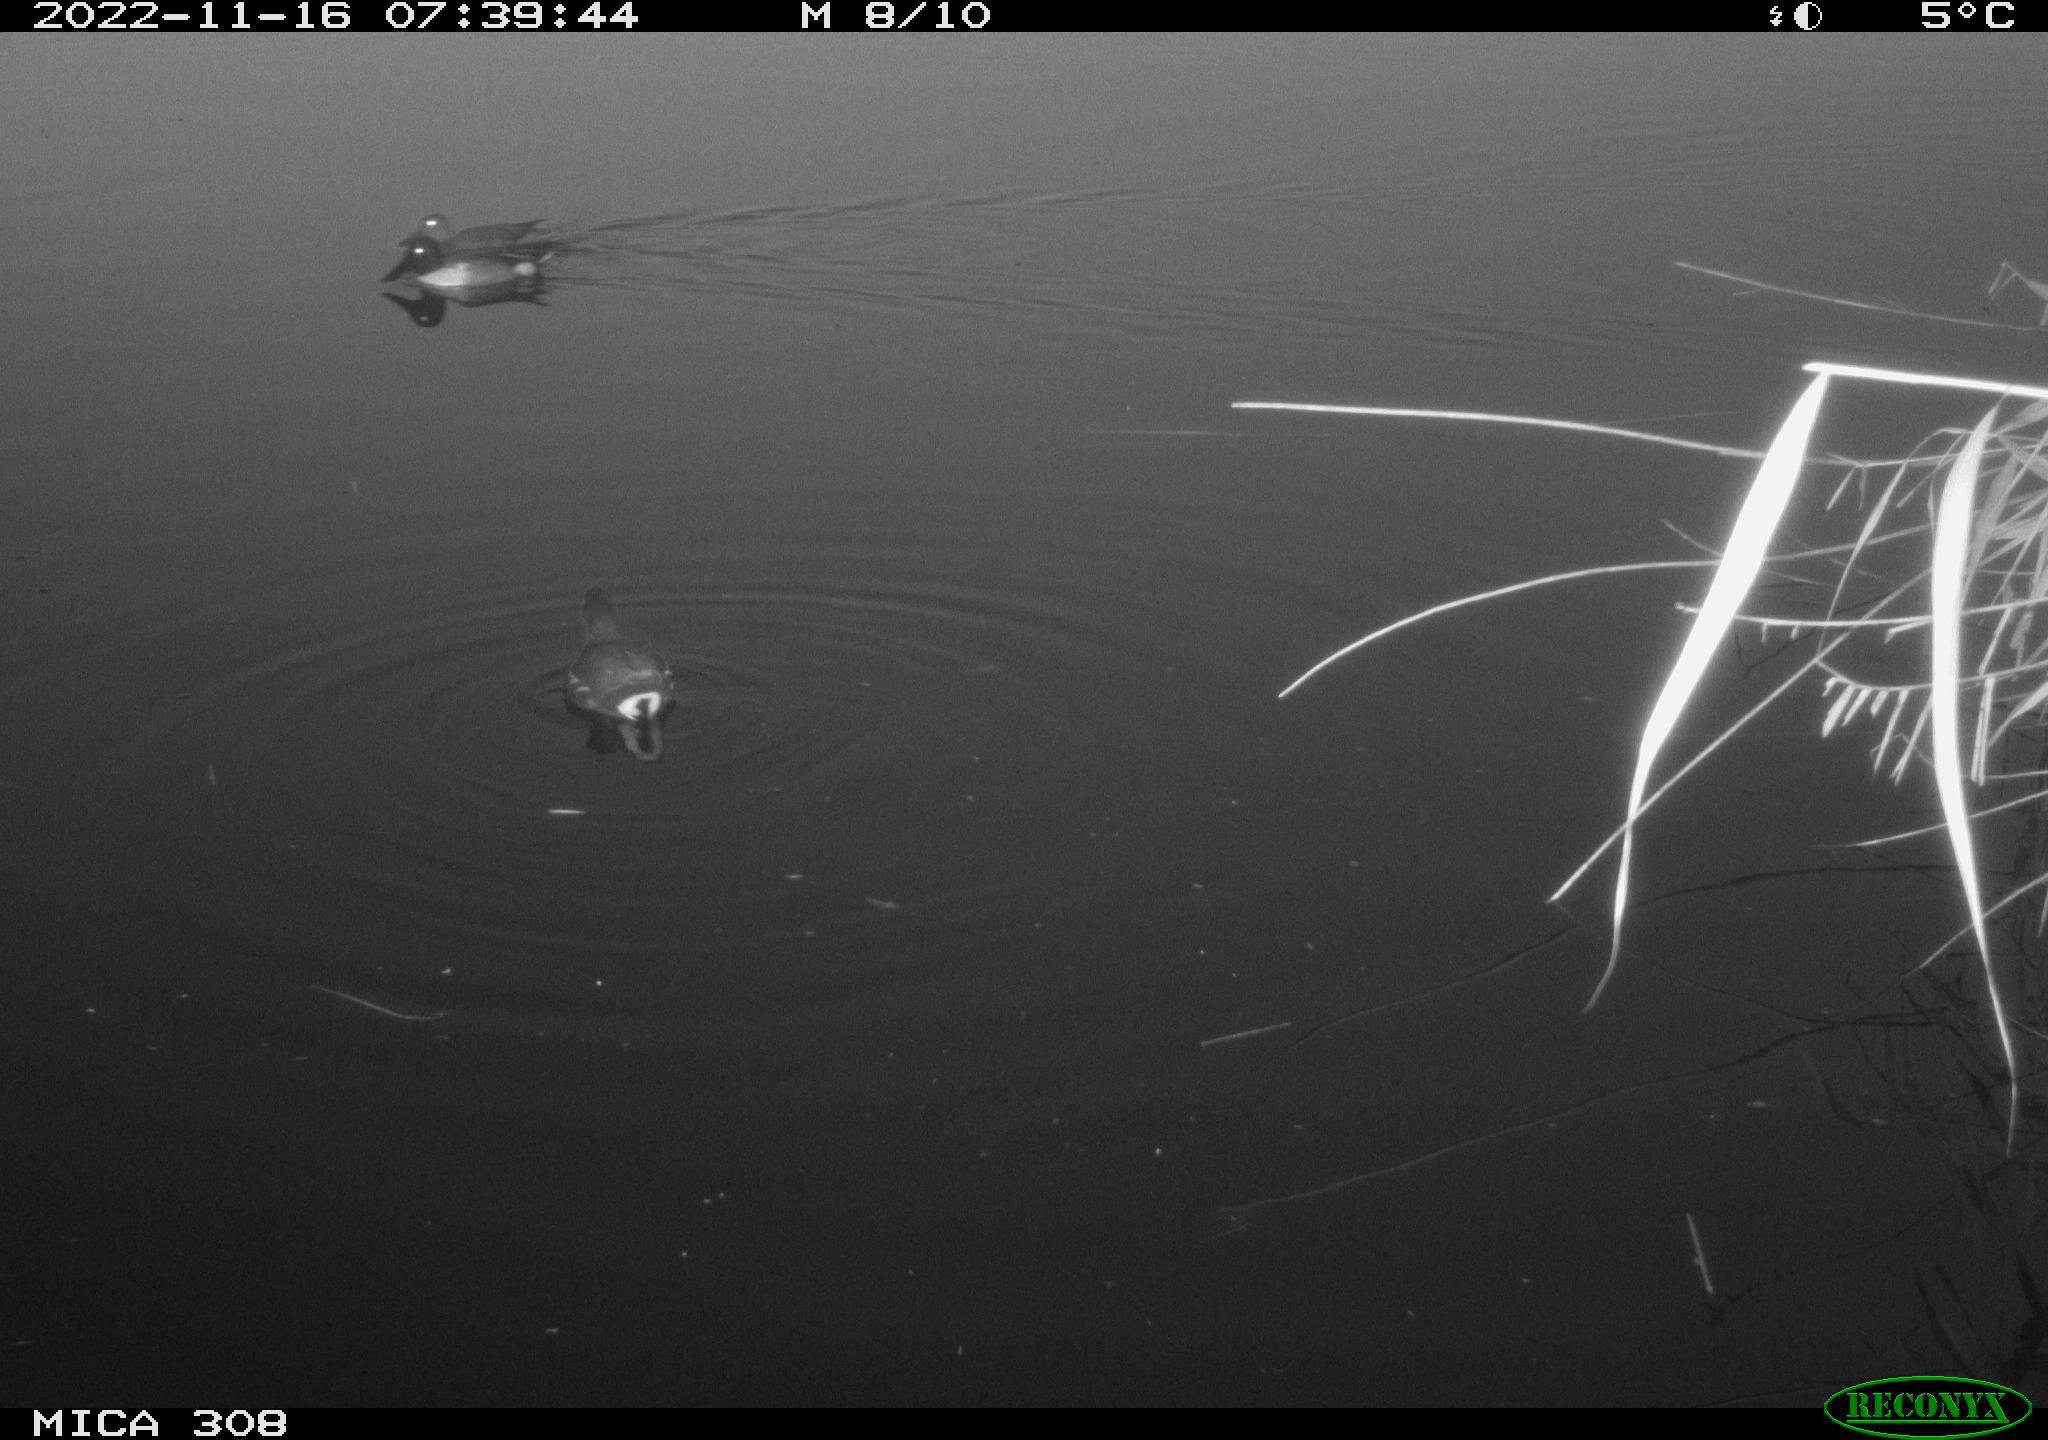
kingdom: Animalia
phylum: Chordata
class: Aves
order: Gruiformes
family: Rallidae
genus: Fulica
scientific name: Fulica atra
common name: Eurasian coot
